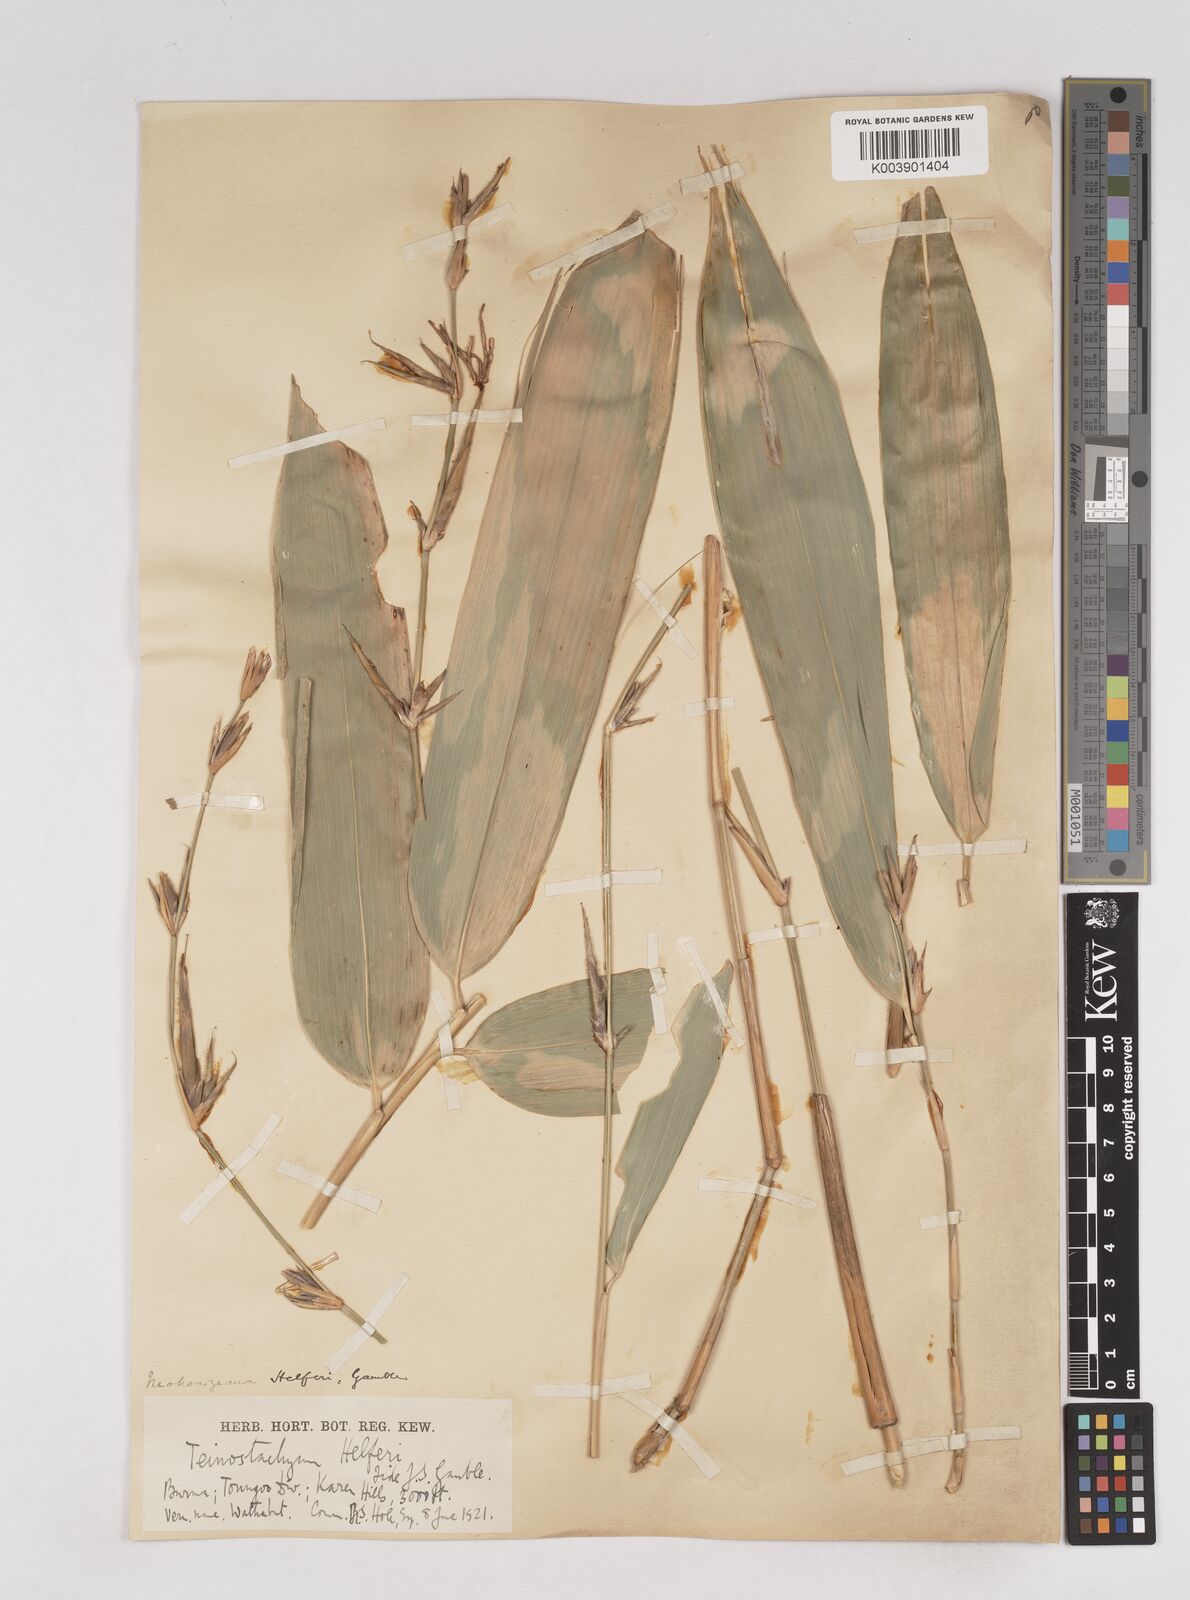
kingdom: Plantae
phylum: Tracheophyta
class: Liliopsida
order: Poales
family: Poaceae
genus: Schizostachyum
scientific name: Schizostachyum helferi
